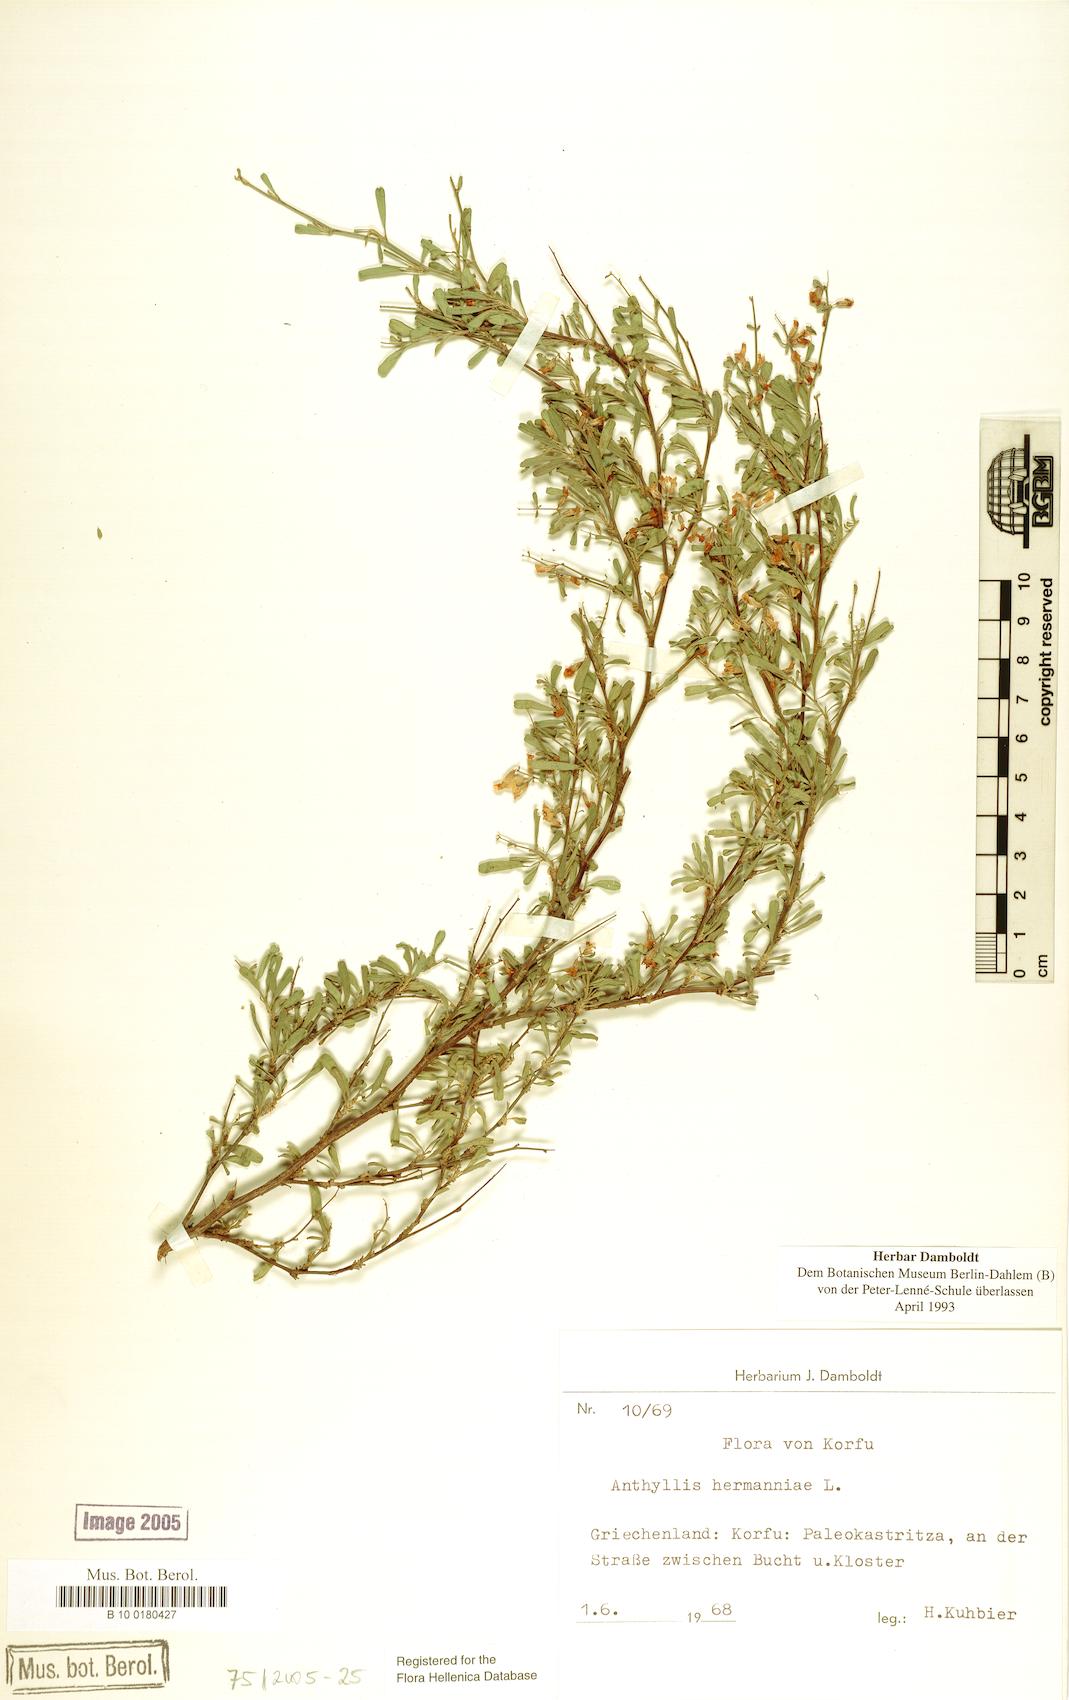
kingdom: Plantae
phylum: Tracheophyta
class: Magnoliopsida
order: Fabales
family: Fabaceae
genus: Anthyllis
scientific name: Anthyllis hermanniae
